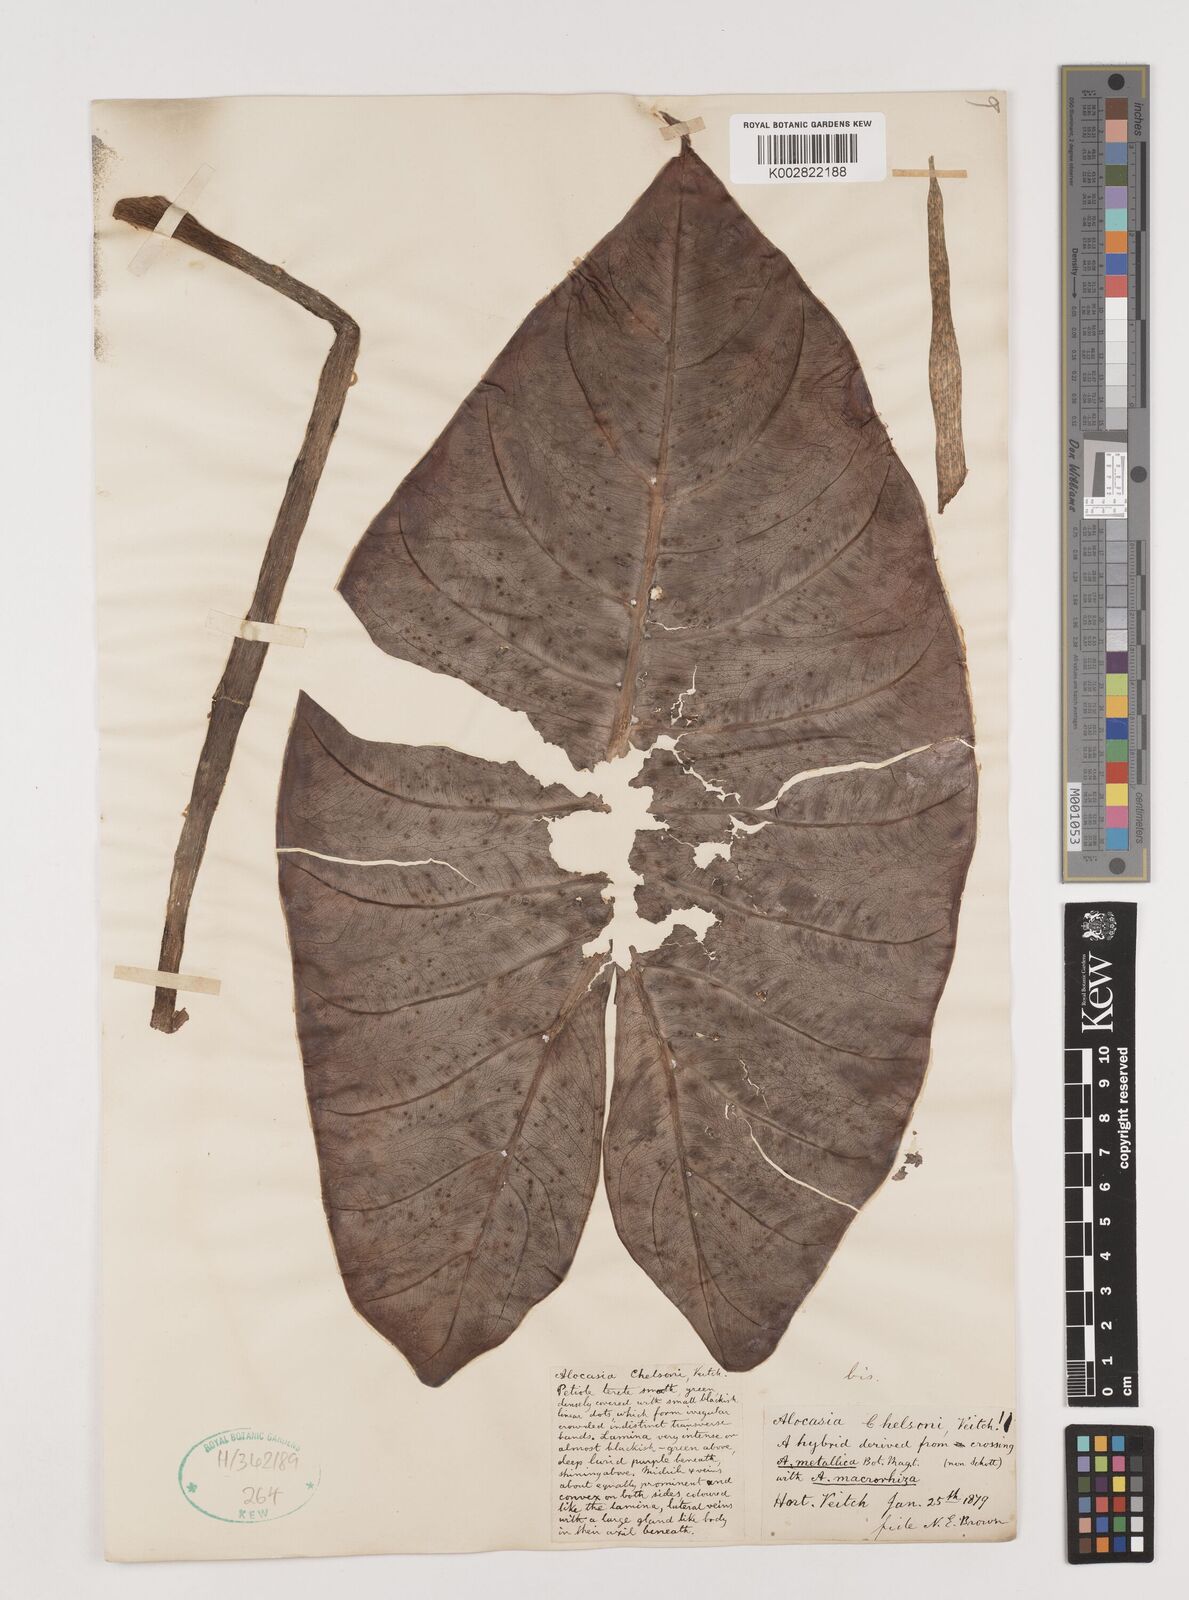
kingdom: Plantae
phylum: Tracheophyta
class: Liliopsida
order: Alismatales
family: Araceae
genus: Alocasia
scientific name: Alocasia macrorrhizos
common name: Giant taro
